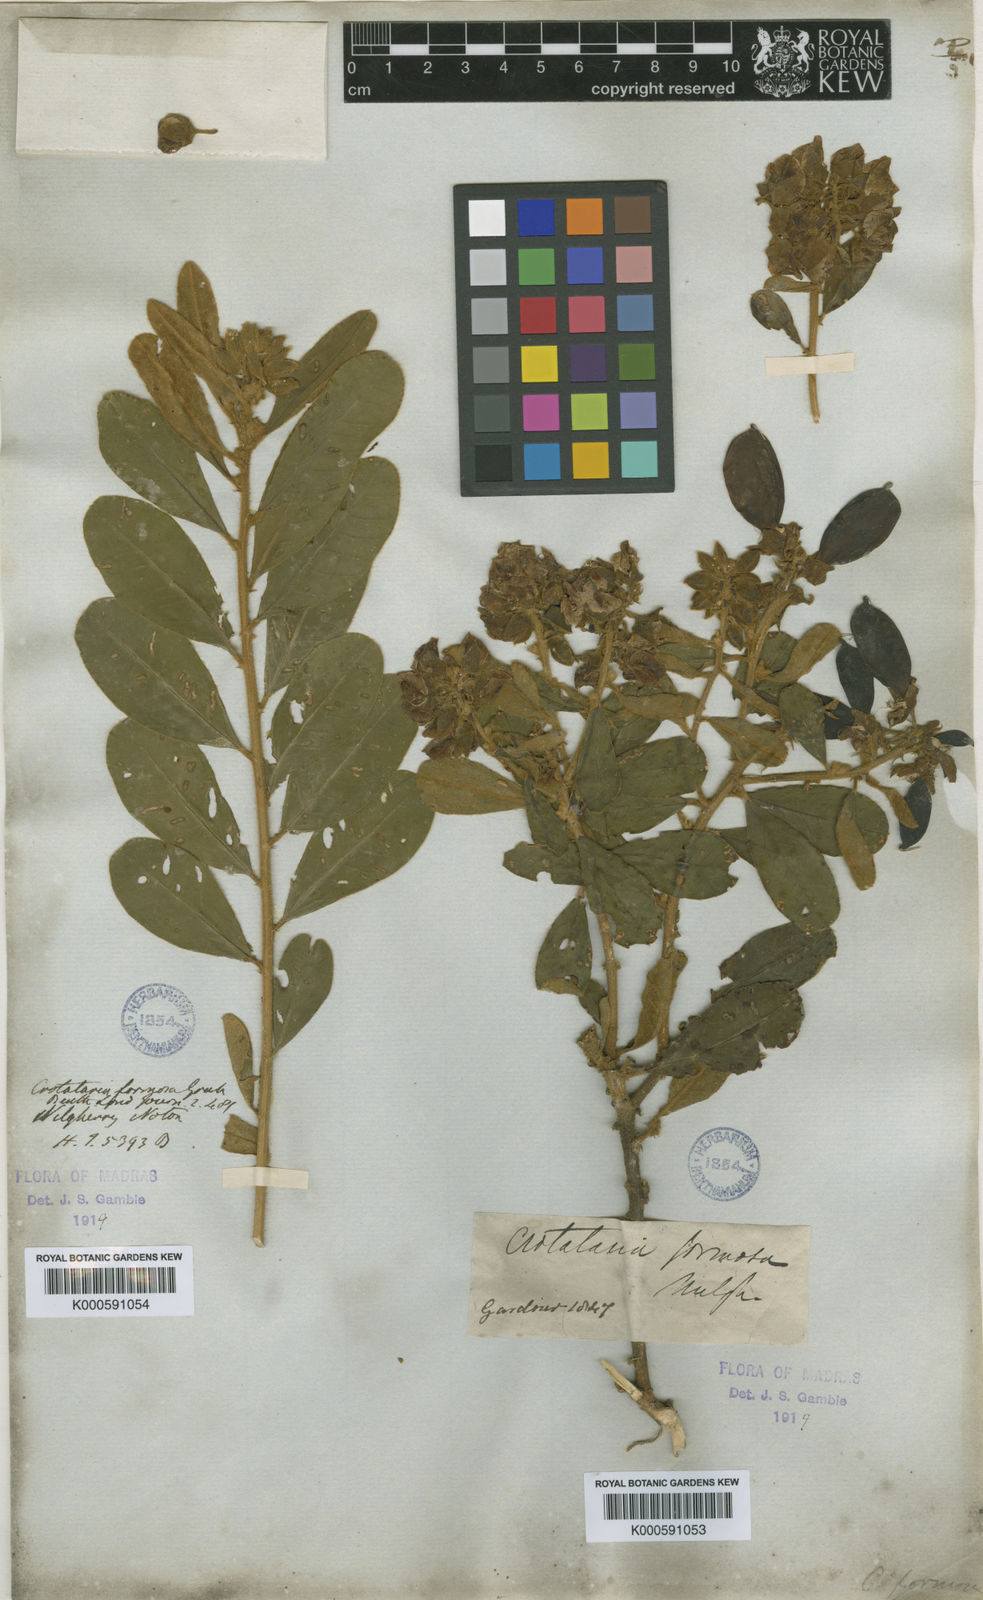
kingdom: Plantae
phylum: Tracheophyta
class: Magnoliopsida
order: Fabales
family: Fabaceae
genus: Crotalaria
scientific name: Crotalaria
